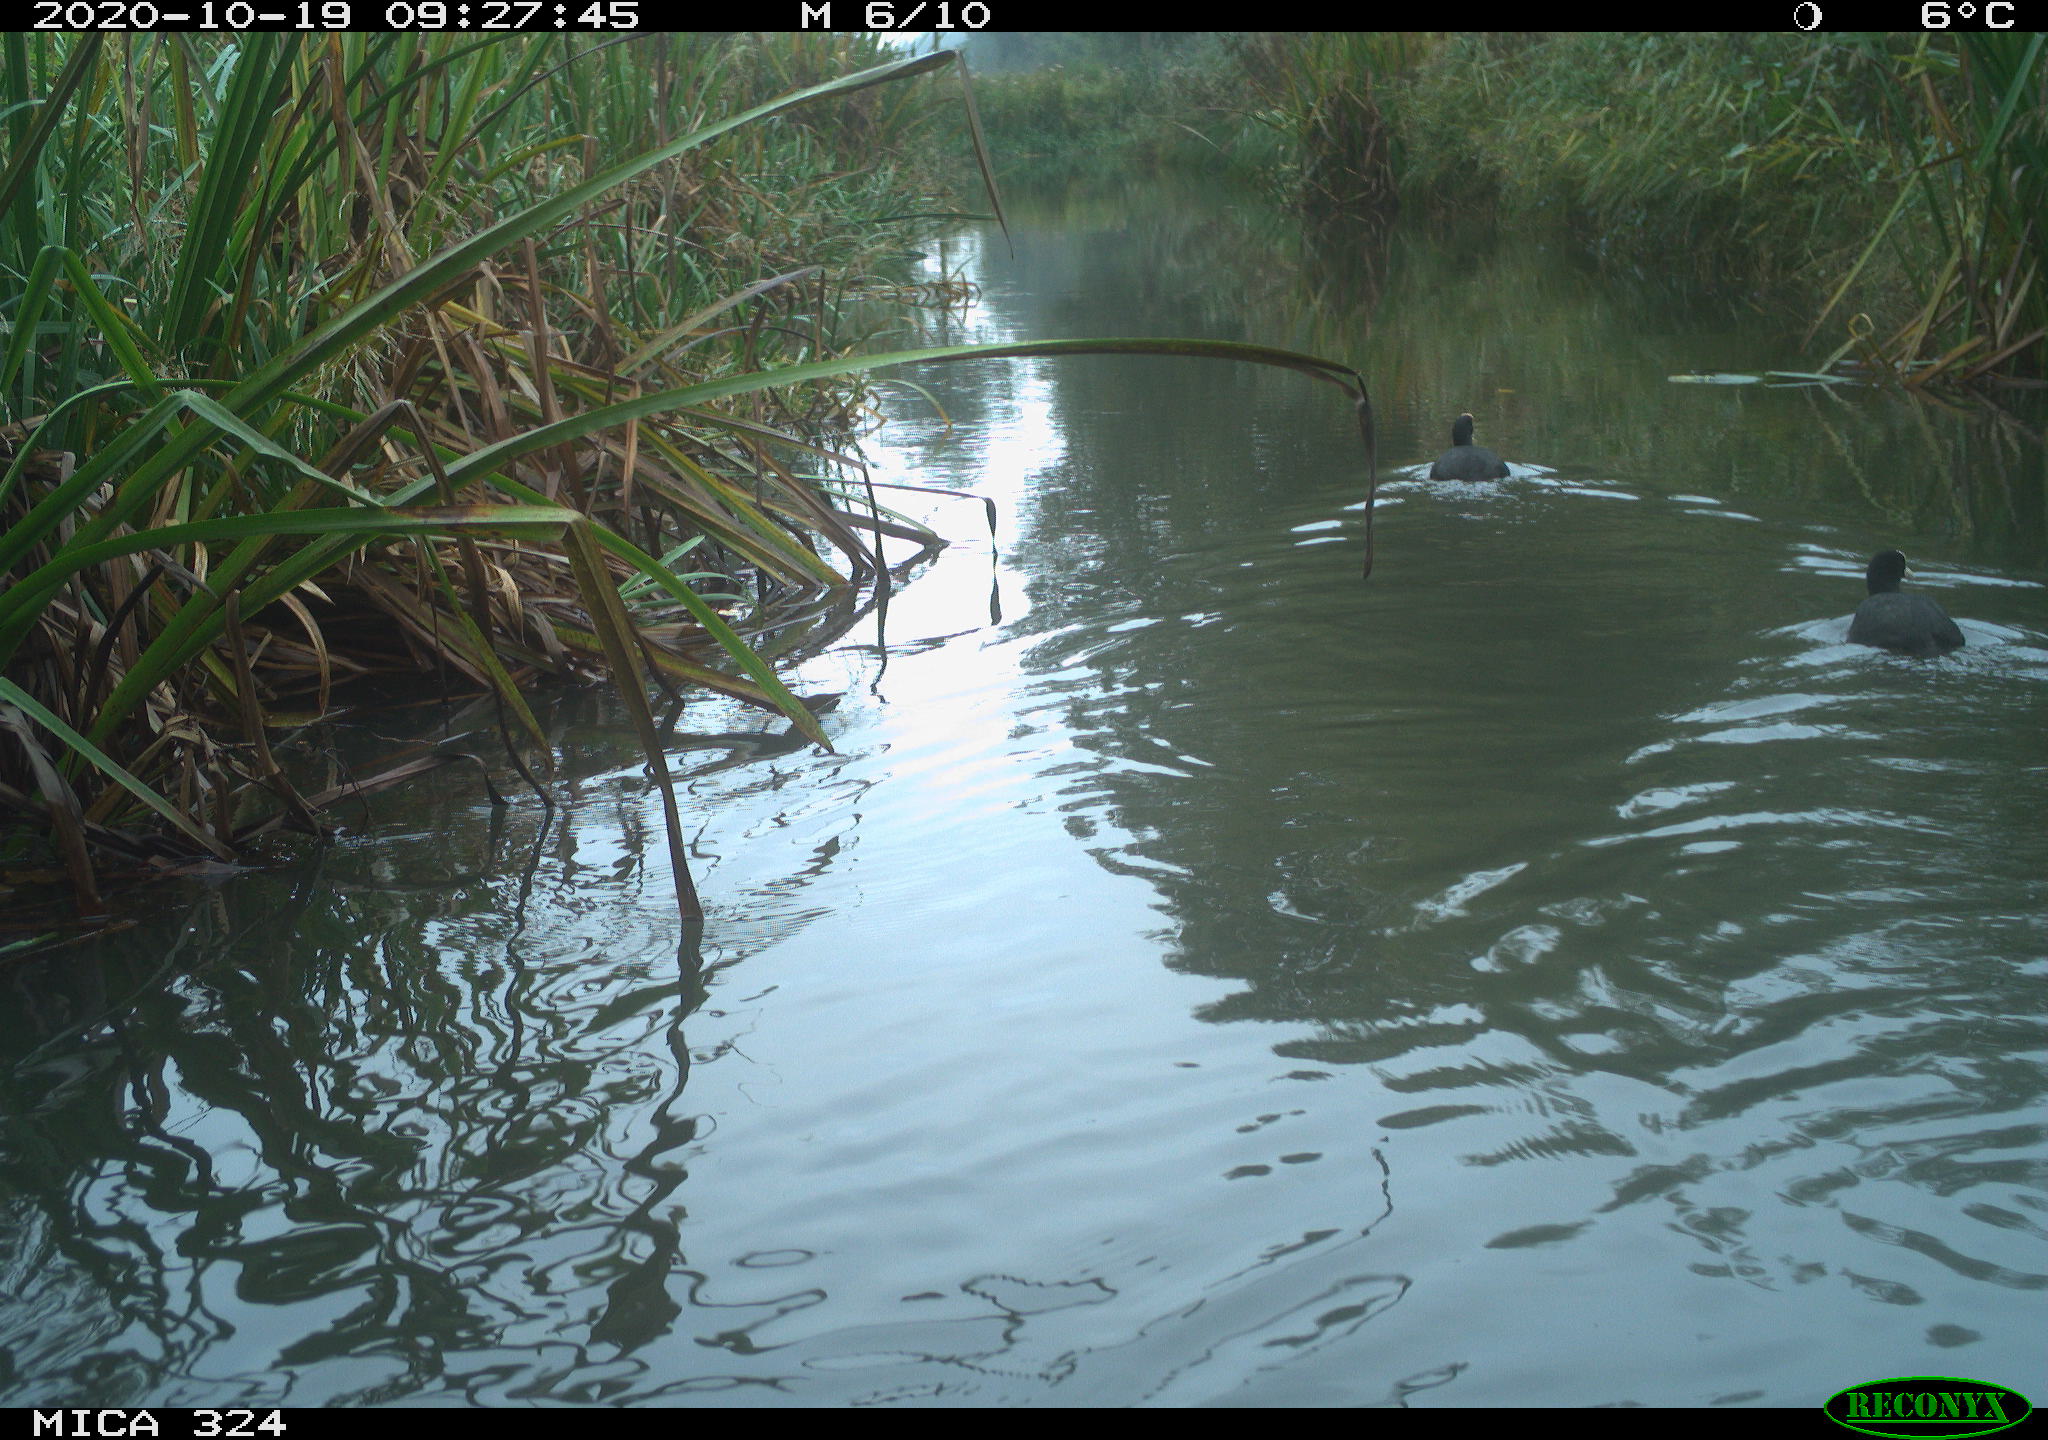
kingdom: Animalia
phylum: Chordata
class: Aves
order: Gruiformes
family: Rallidae
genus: Fulica
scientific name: Fulica atra
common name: Eurasian coot
